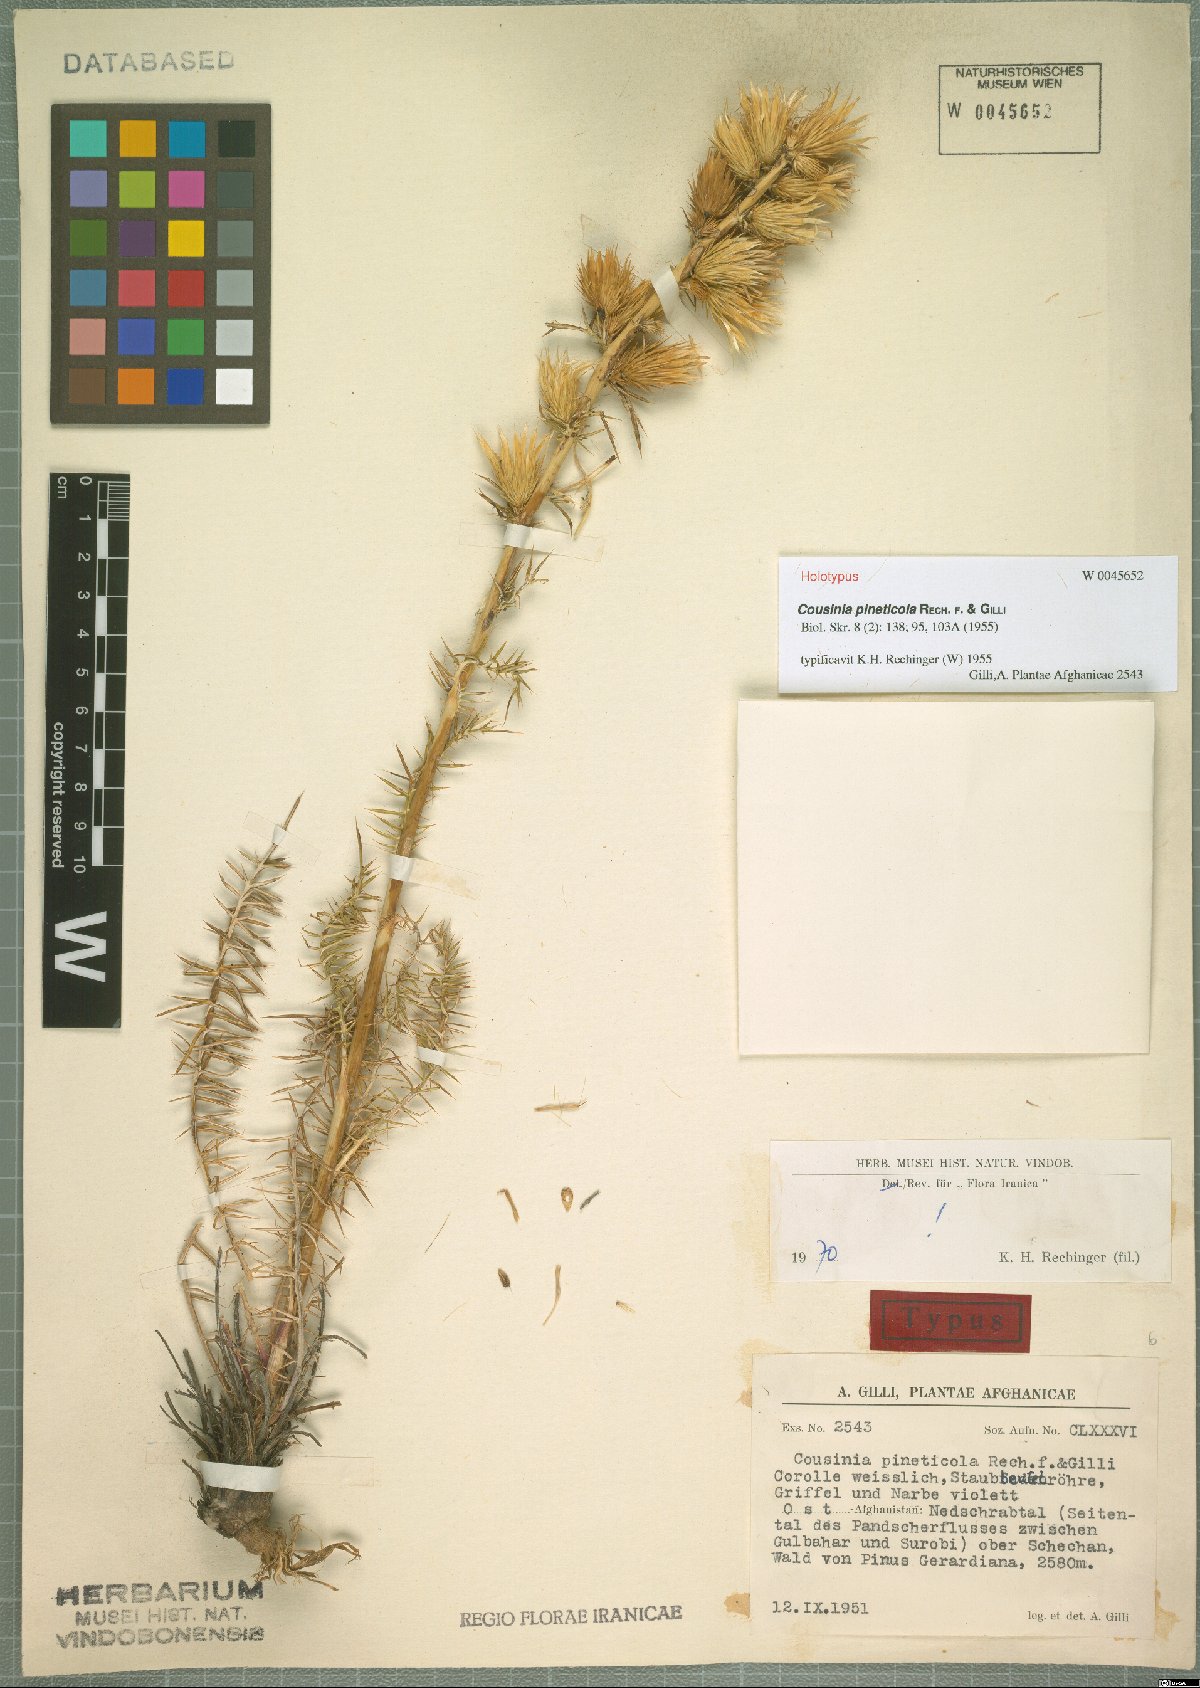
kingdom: Plantae
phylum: Tracheophyta
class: Magnoliopsida
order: Asterales
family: Asteraceae
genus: Cousinia
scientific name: Cousinia pineticola
